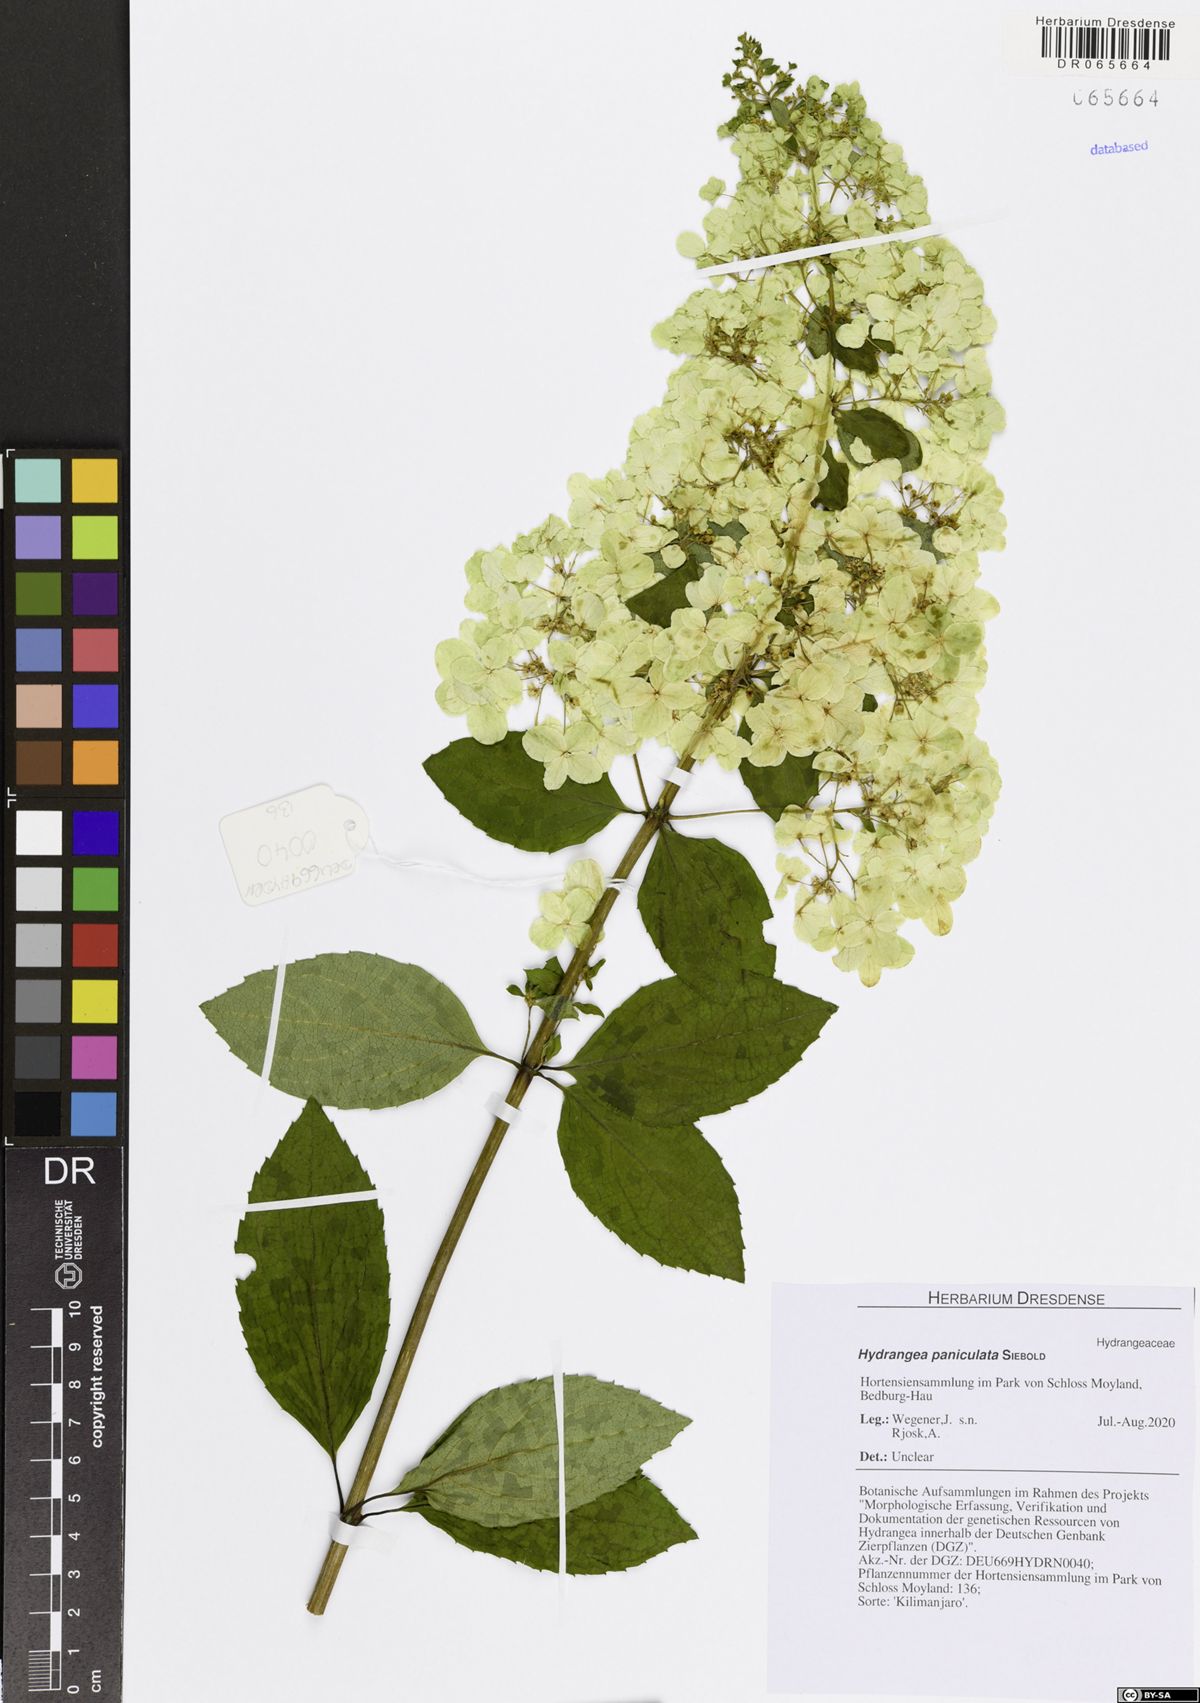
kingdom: Plantae
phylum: Tracheophyta
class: Magnoliopsida
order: Cornales
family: Hydrangeaceae
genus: Hydrangea
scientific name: Hydrangea paniculata
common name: Panicled hydrangea
